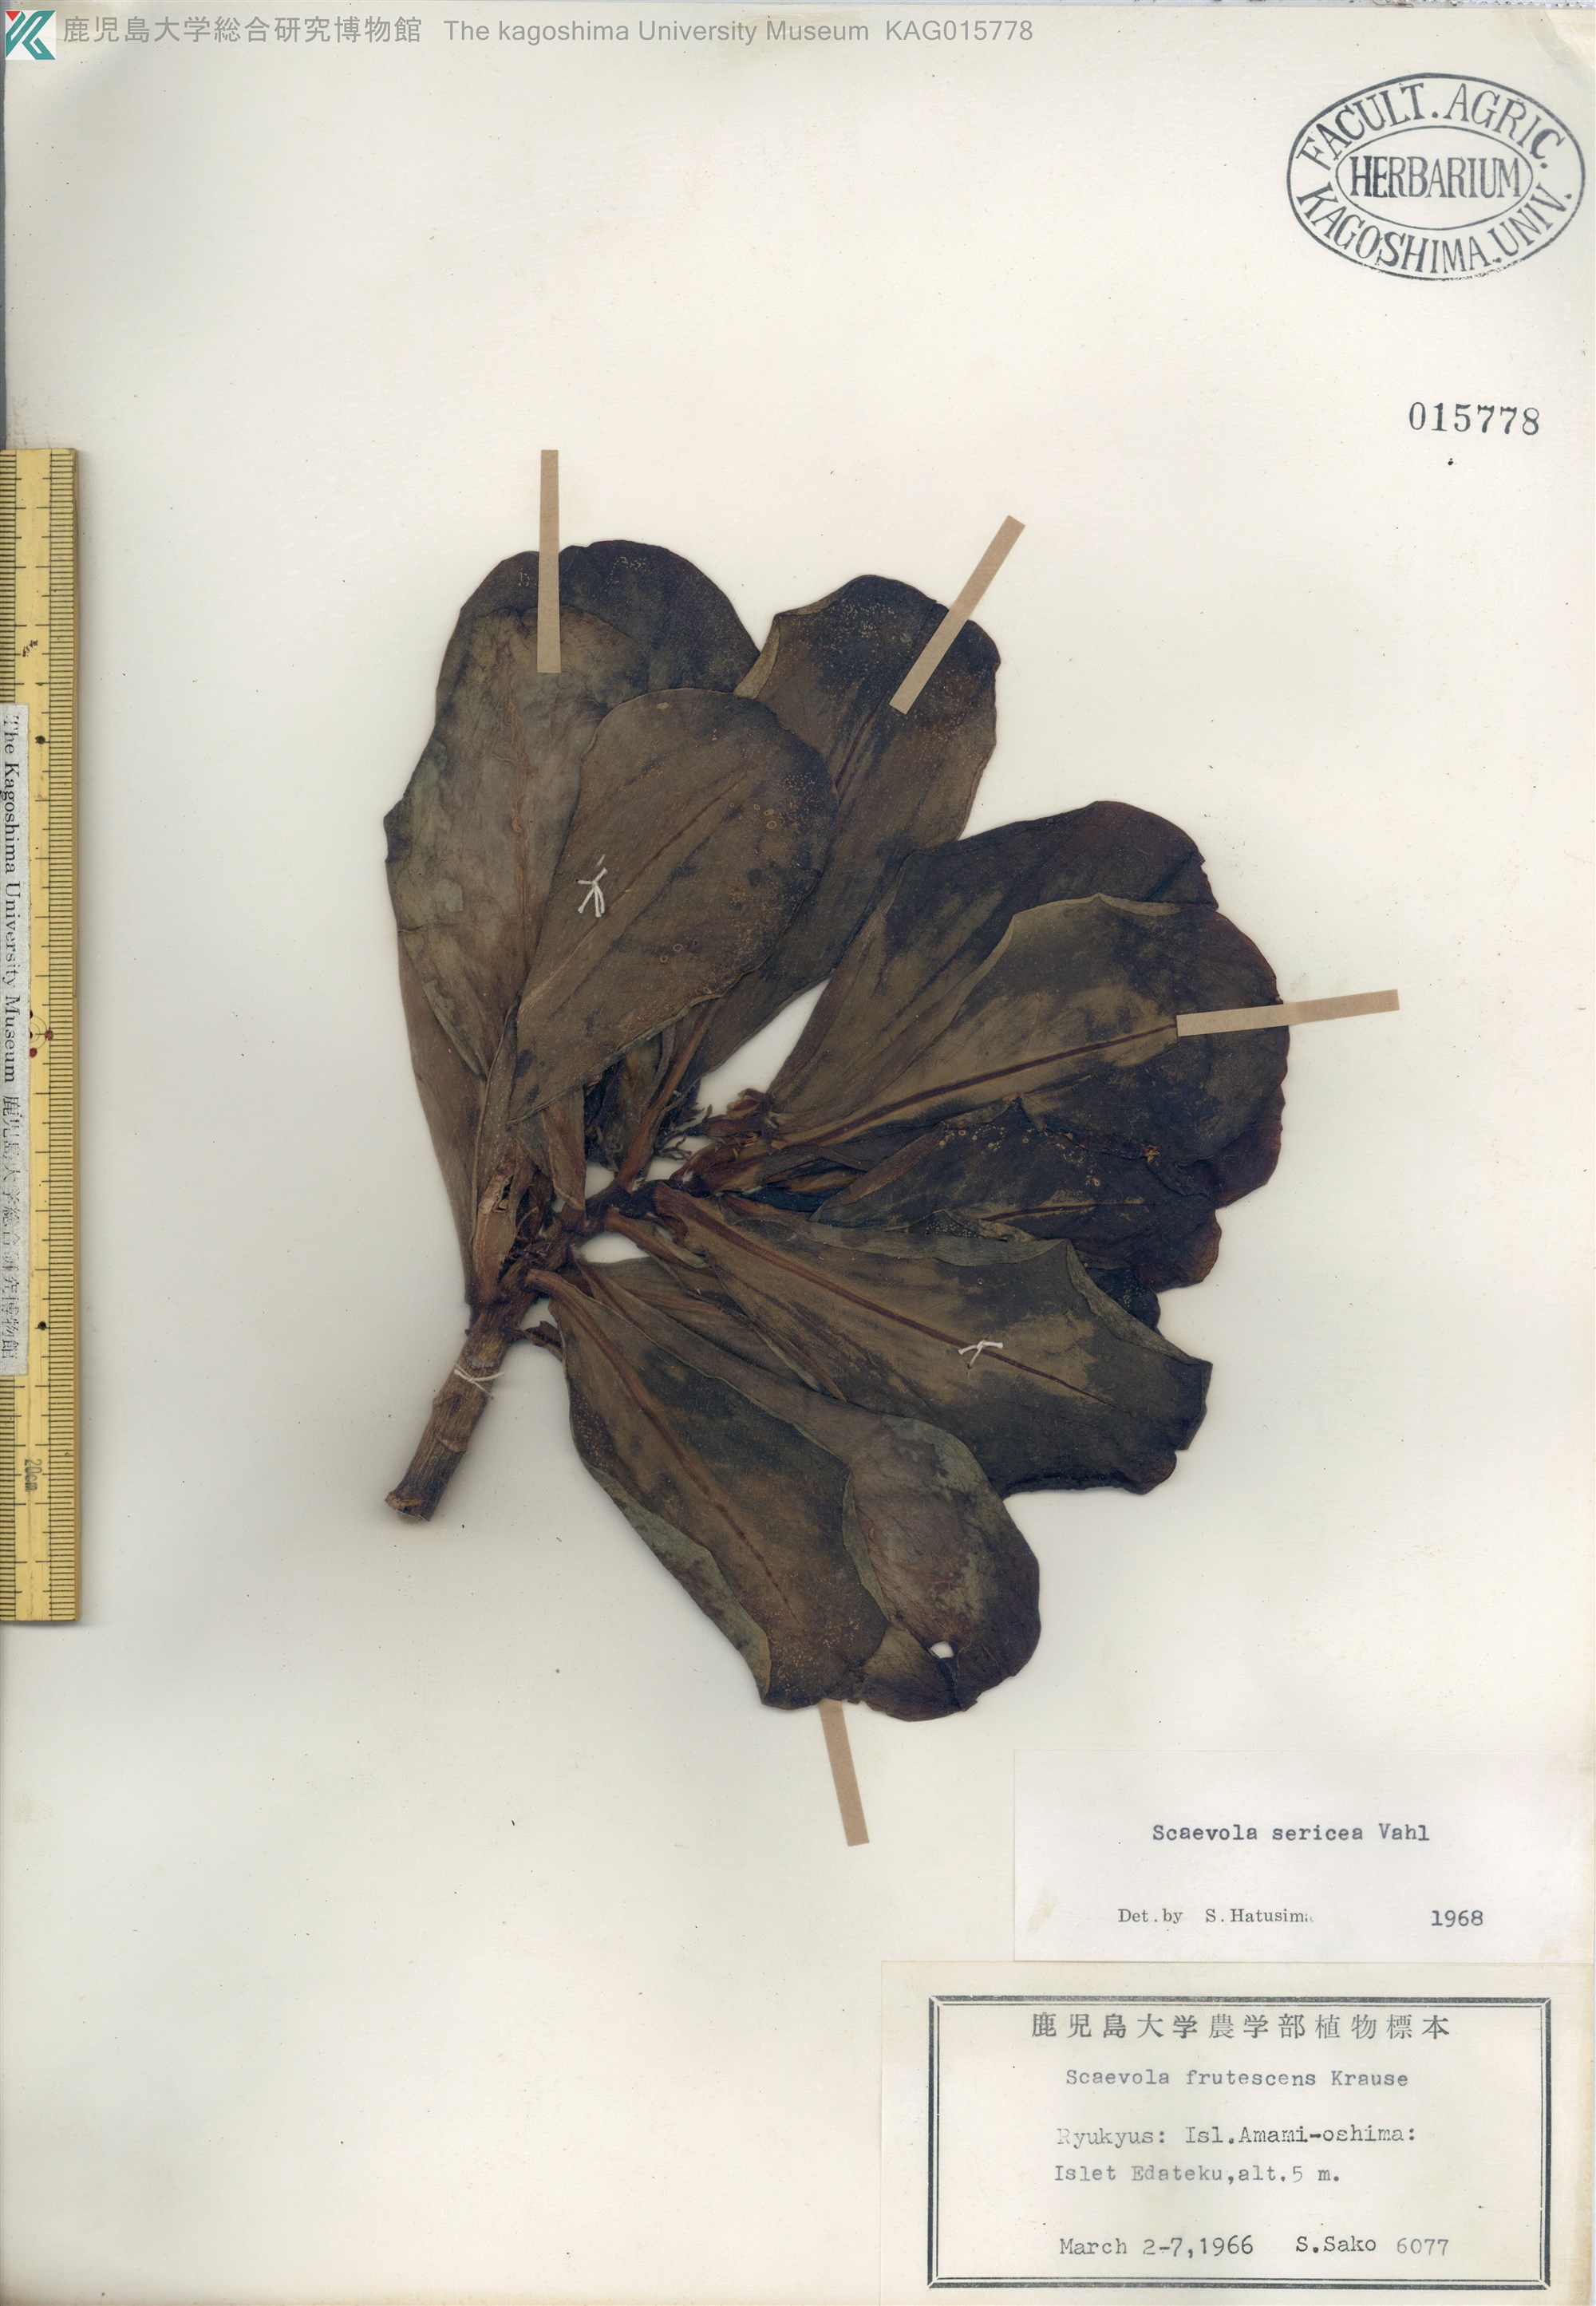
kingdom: Plantae
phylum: Tracheophyta
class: Magnoliopsida
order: Asterales
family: Goodeniaceae
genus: Scaevola
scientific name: Scaevola taccada
